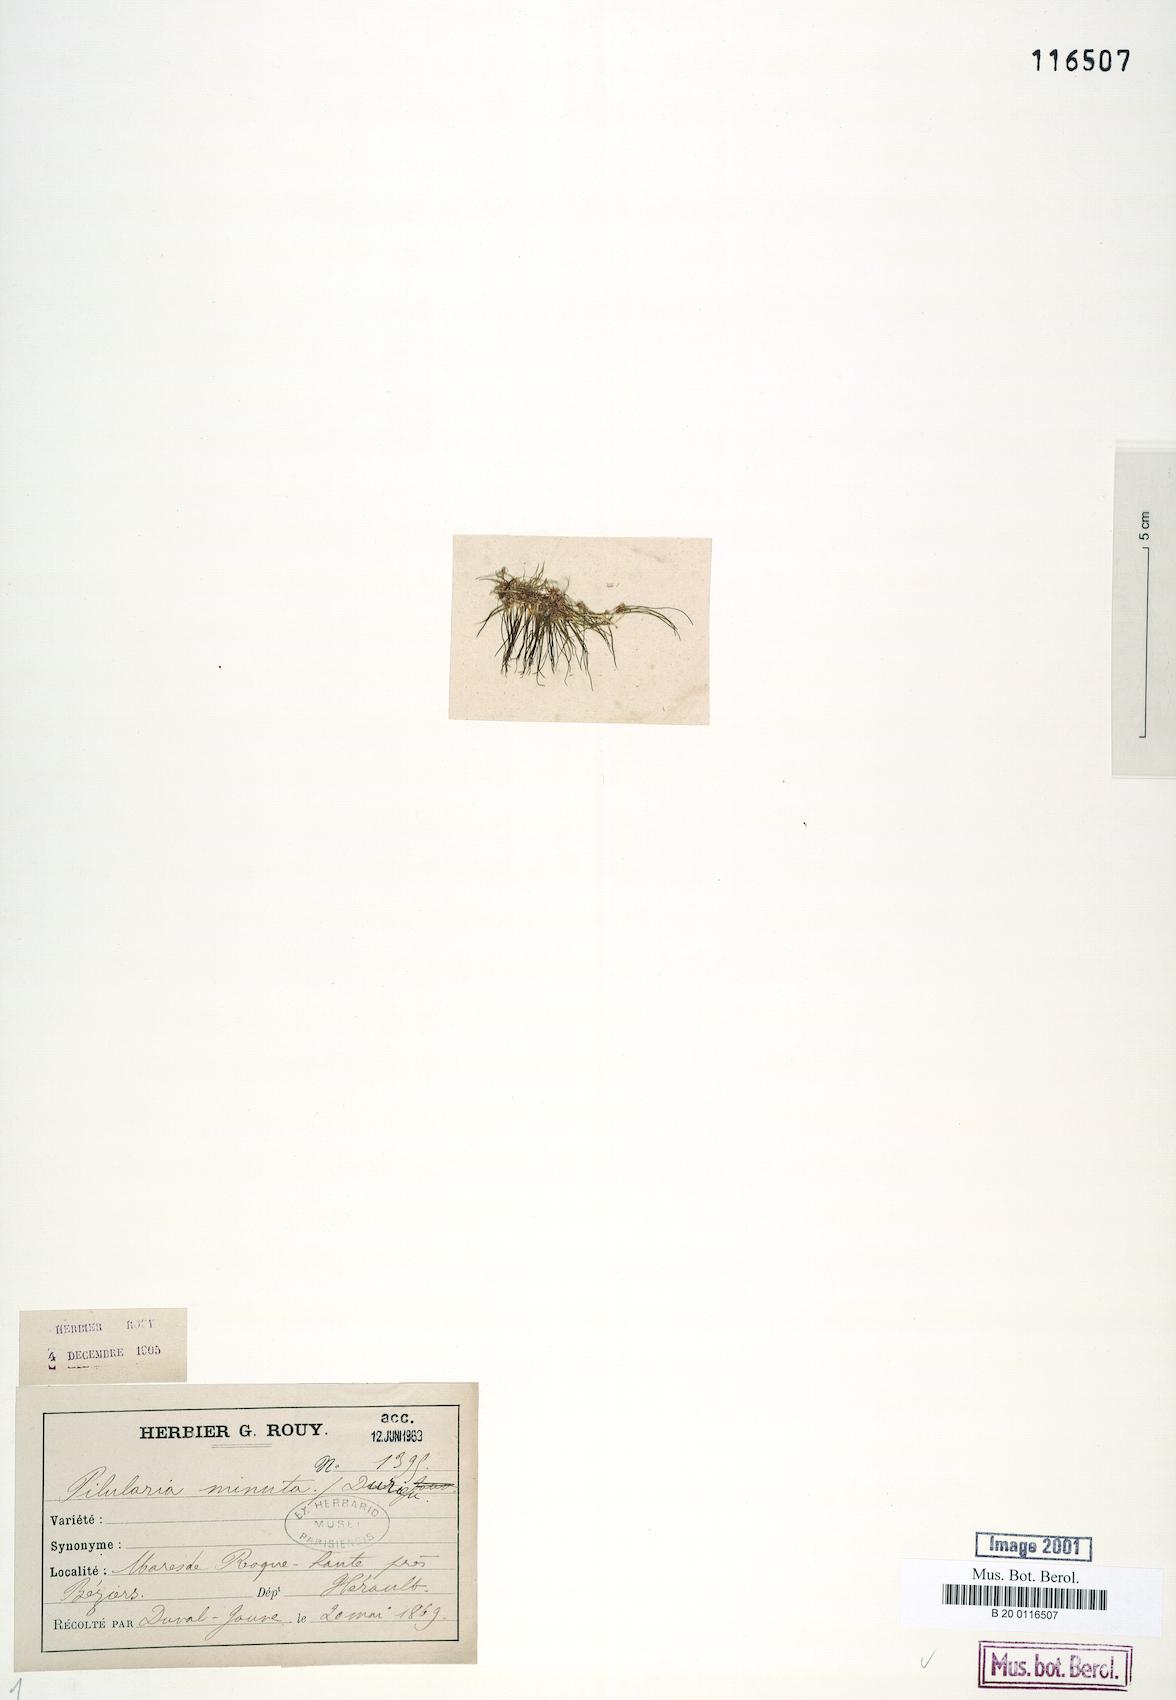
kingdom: Plantae
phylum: Tracheophyta
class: Polypodiopsida
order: Salviniales
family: Marsileaceae
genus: Pilularia
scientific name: Pilularia minuta
